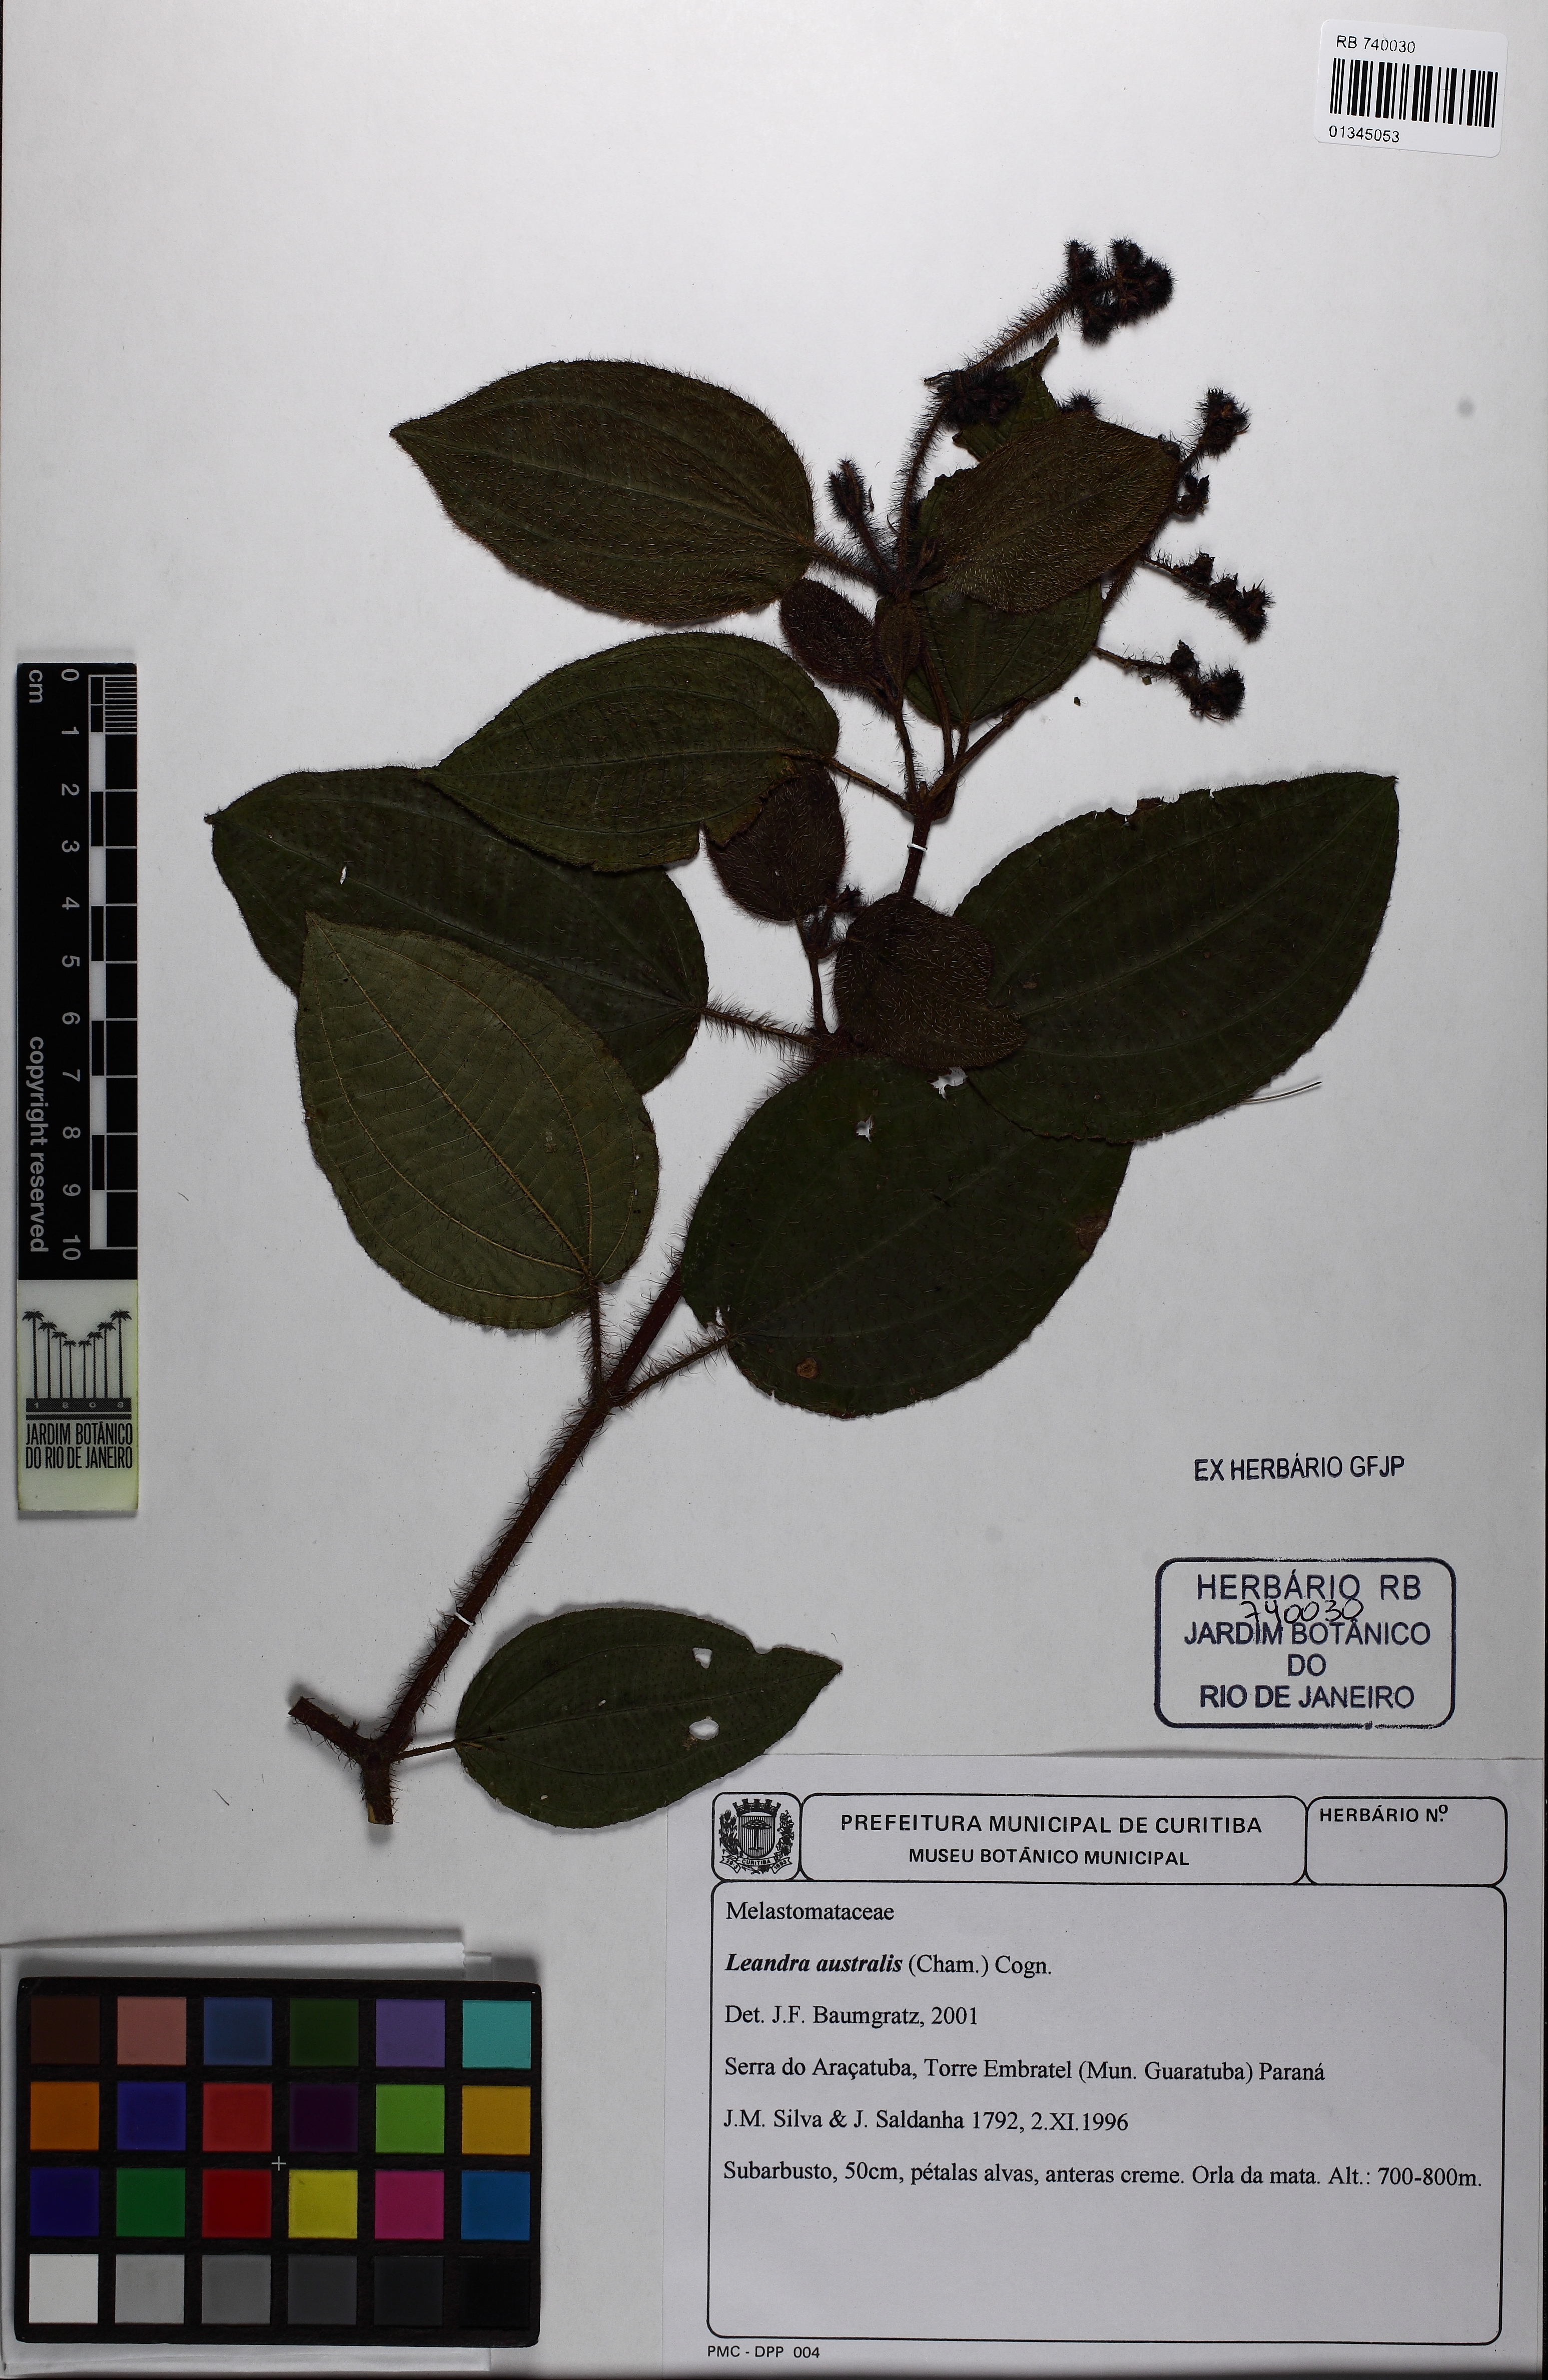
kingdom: Plantae
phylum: Tracheophyta
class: Magnoliopsida
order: Myrtales
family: Melastomataceae
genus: Miconia
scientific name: Miconia australis
